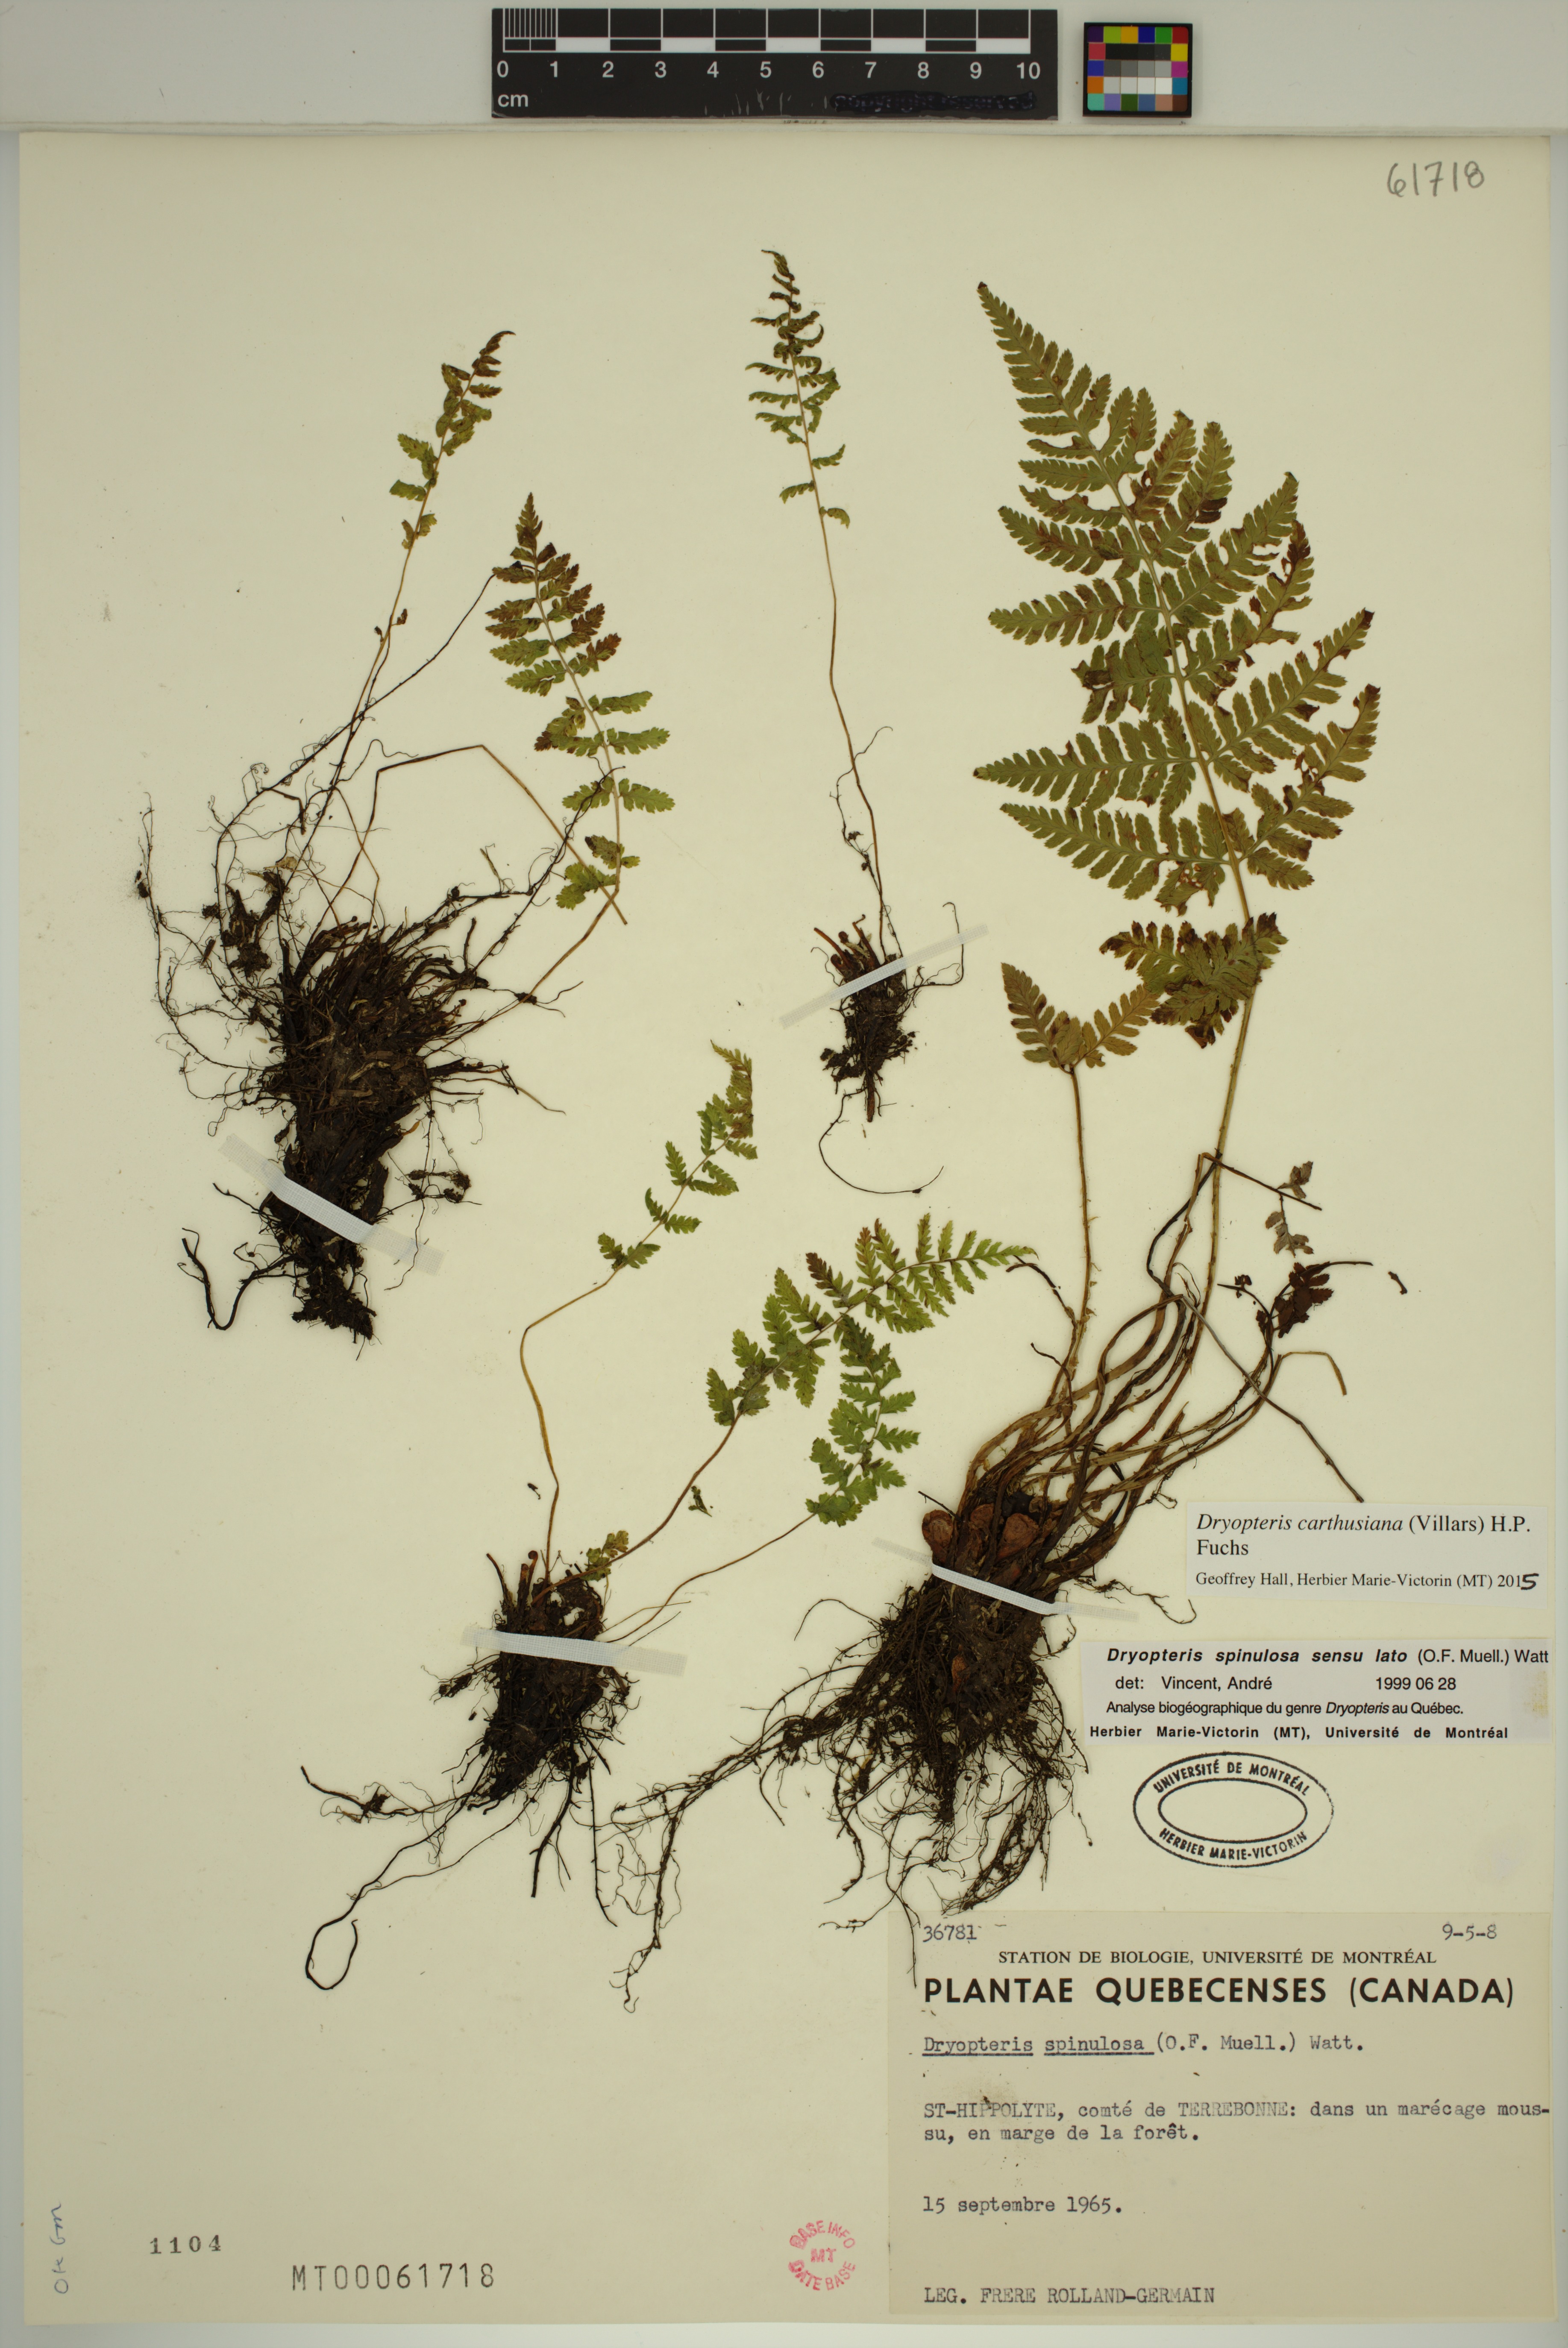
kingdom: Plantae
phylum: Tracheophyta
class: Polypodiopsida
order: Polypodiales
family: Dryopteridaceae
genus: Dryopteris
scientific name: Dryopteris carthusiana
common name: Narrow buckler-fern
